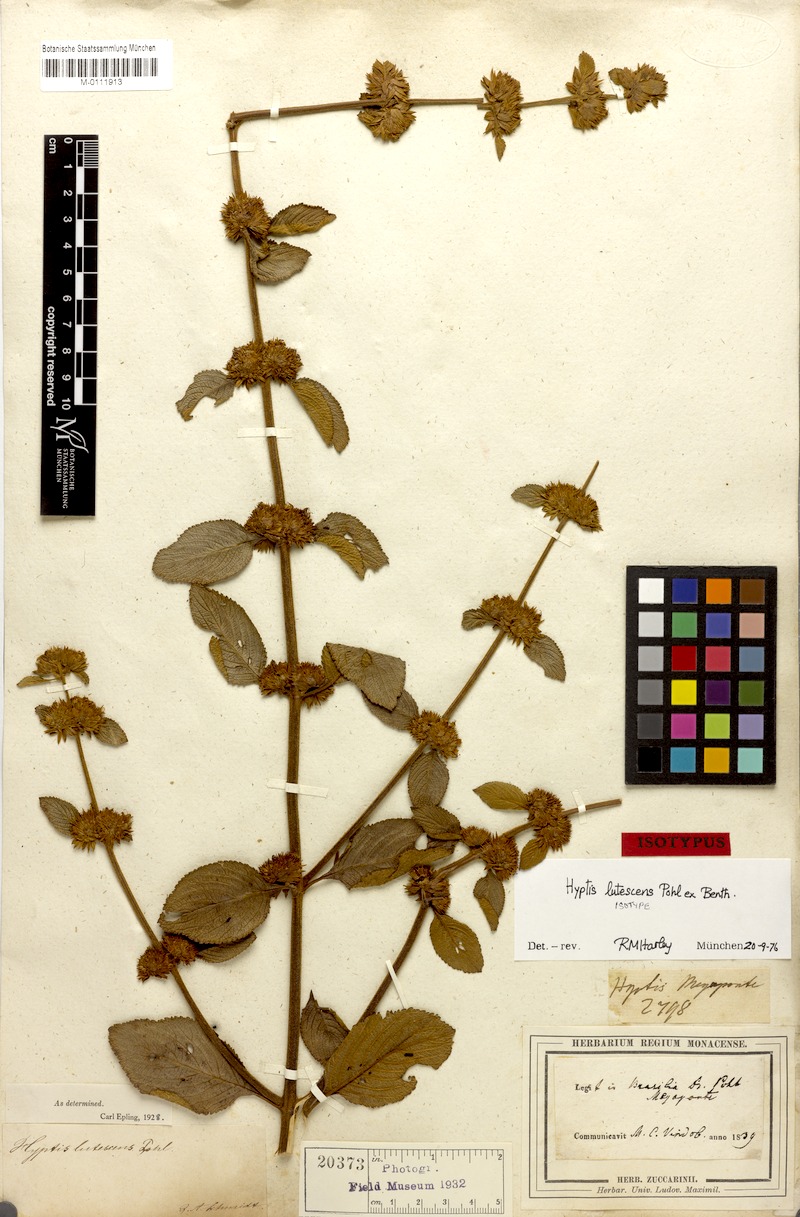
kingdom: Plantae
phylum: Tracheophyta
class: Magnoliopsida
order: Lamiales
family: Lamiaceae
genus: Hyptis
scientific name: Hyptis lutescens
